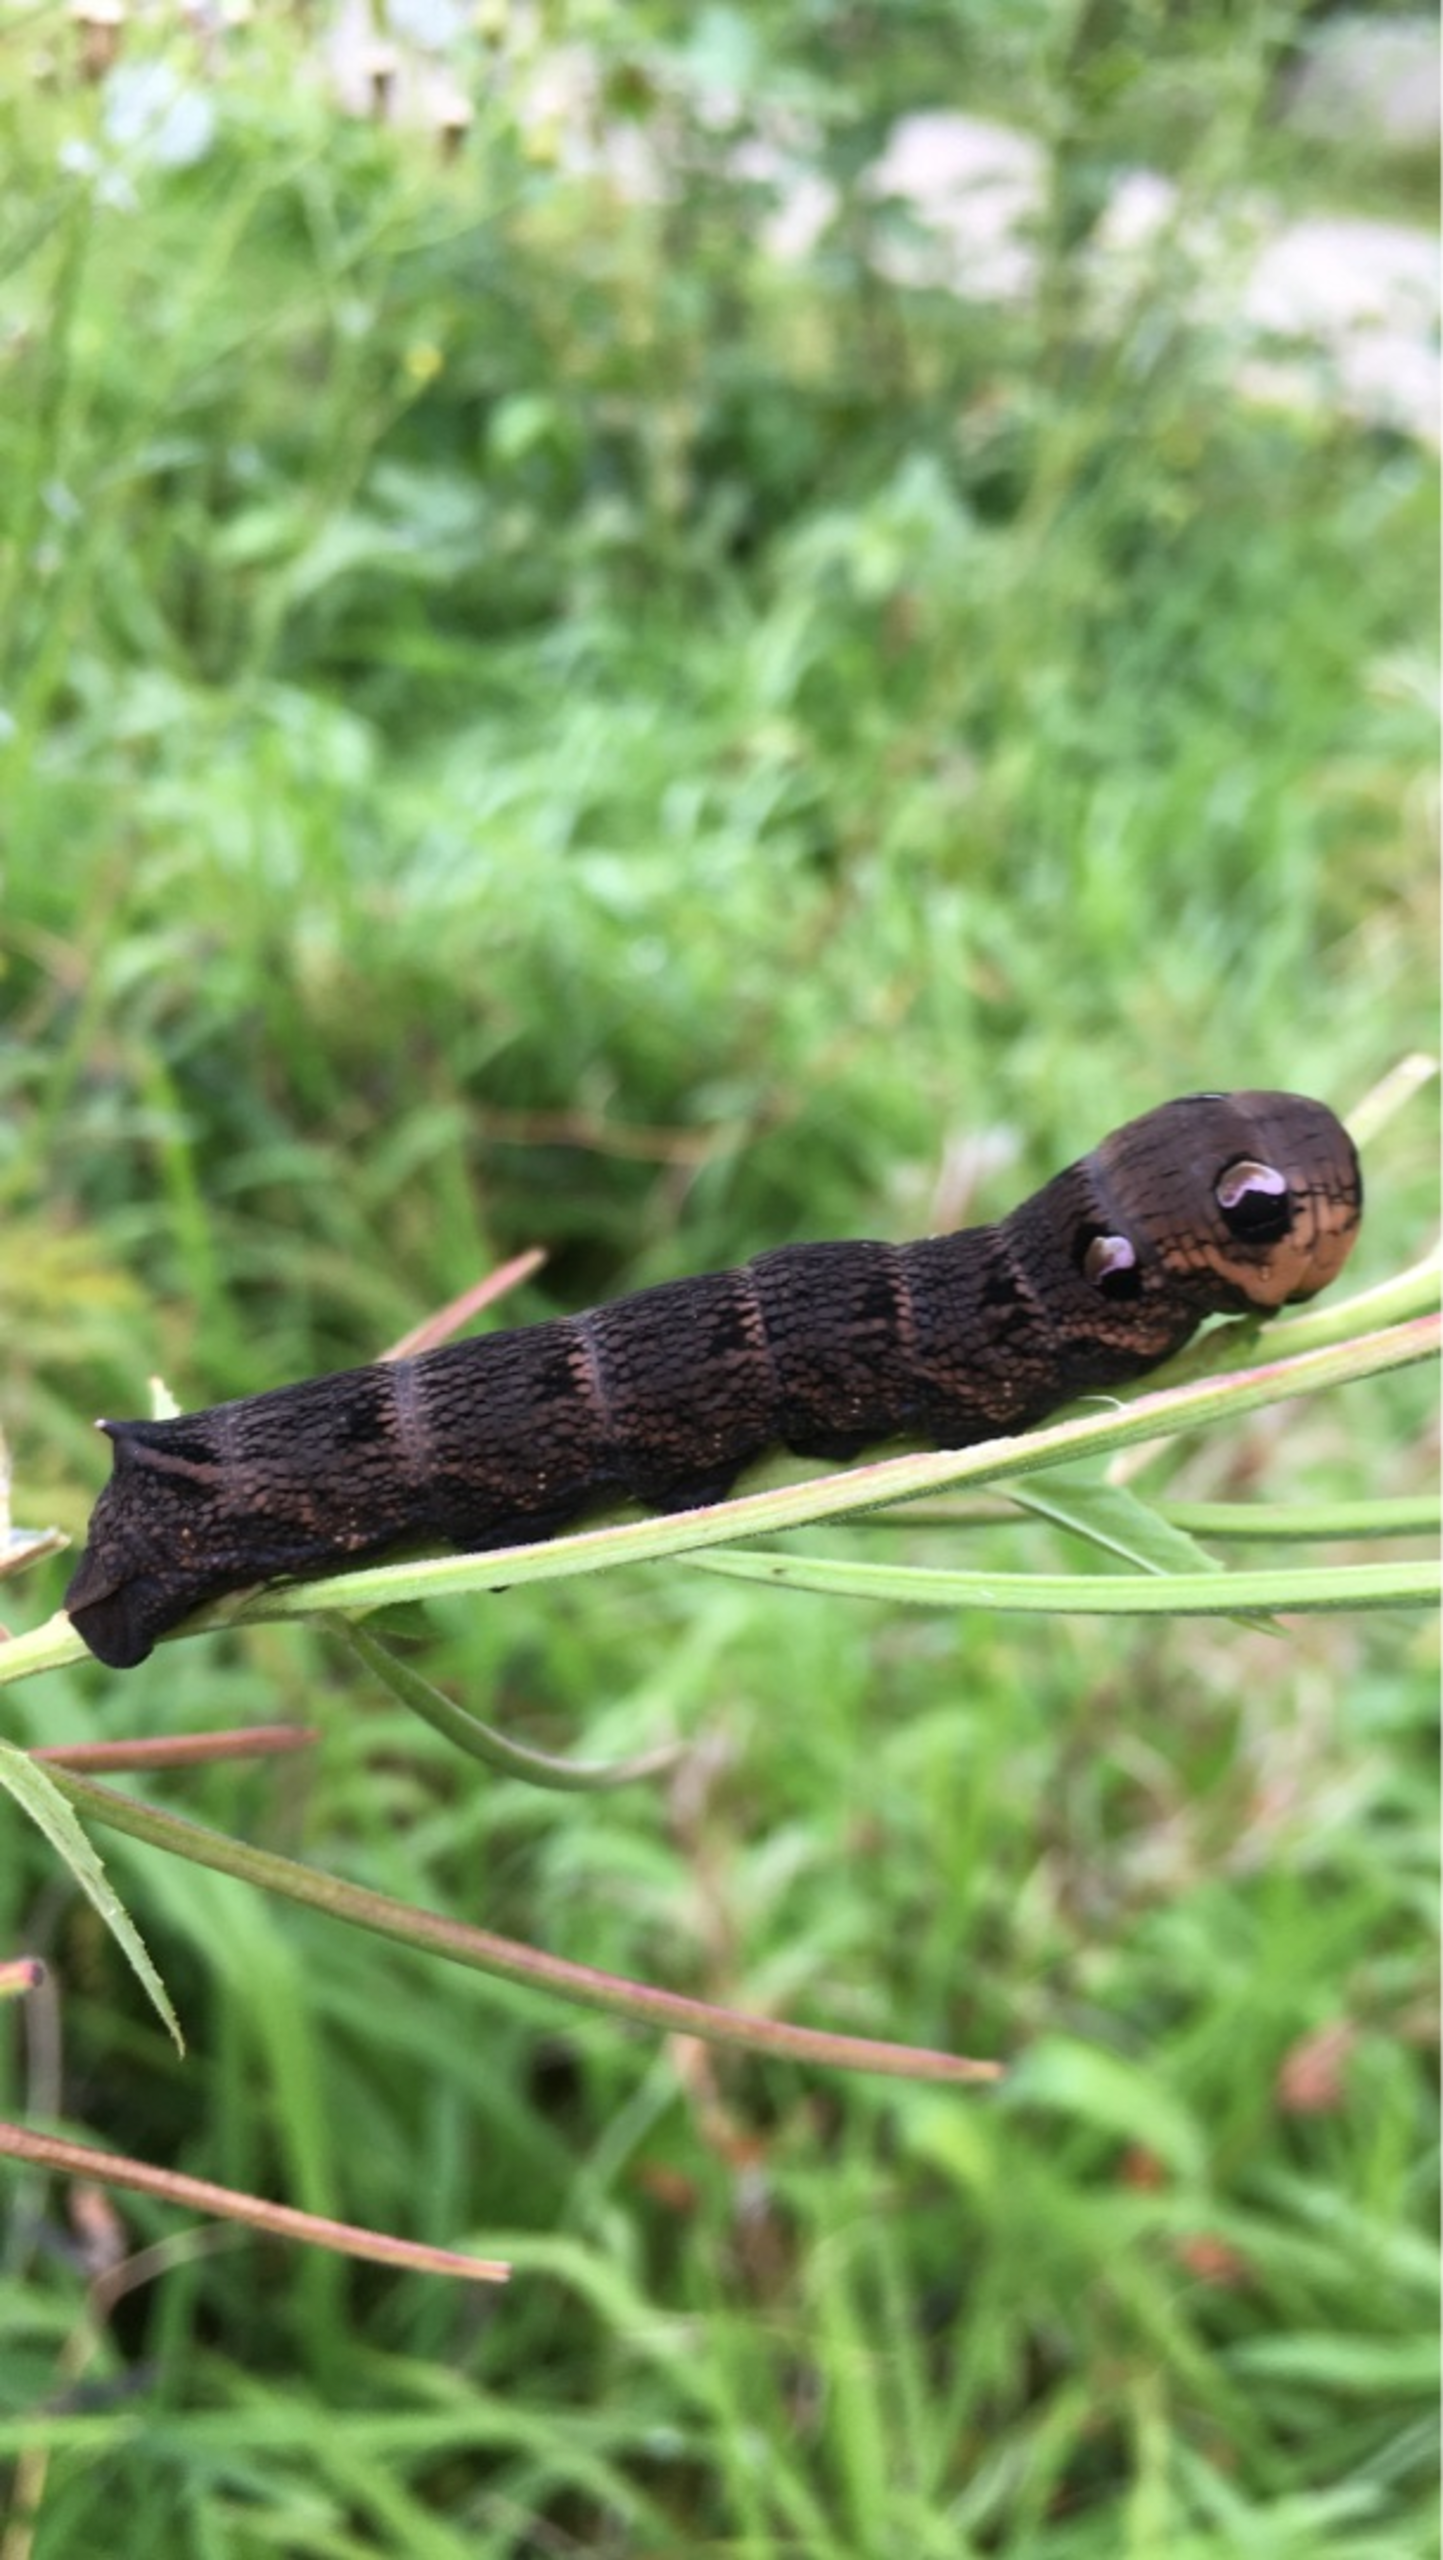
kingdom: Animalia
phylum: Arthropoda
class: Insecta
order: Lepidoptera
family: Sphingidae
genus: Deilephila
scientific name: Deilephila elpenor
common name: Dueurtsværmer
